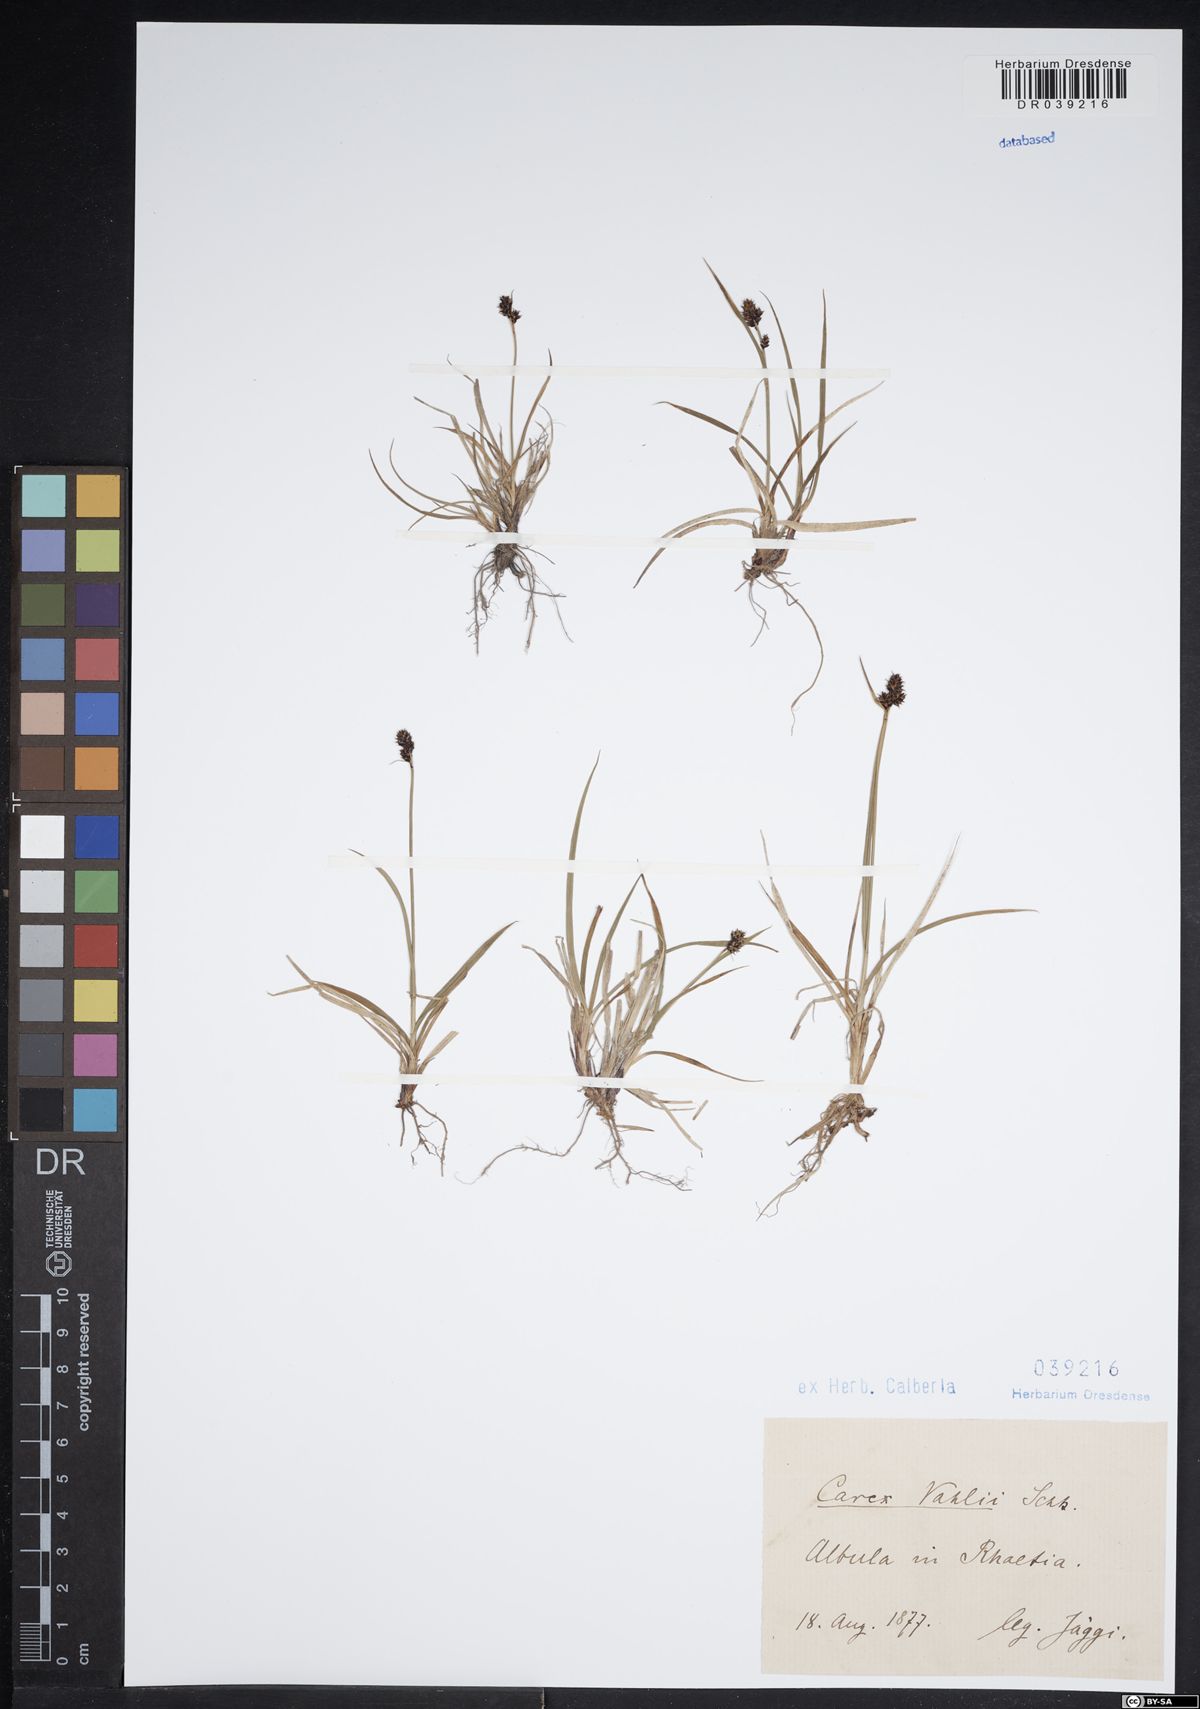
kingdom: Plantae
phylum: Tracheophyta
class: Liliopsida
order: Poales
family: Cyperaceae
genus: Carex
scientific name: Carex norvegica
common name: Close-headed alpine-sedge
